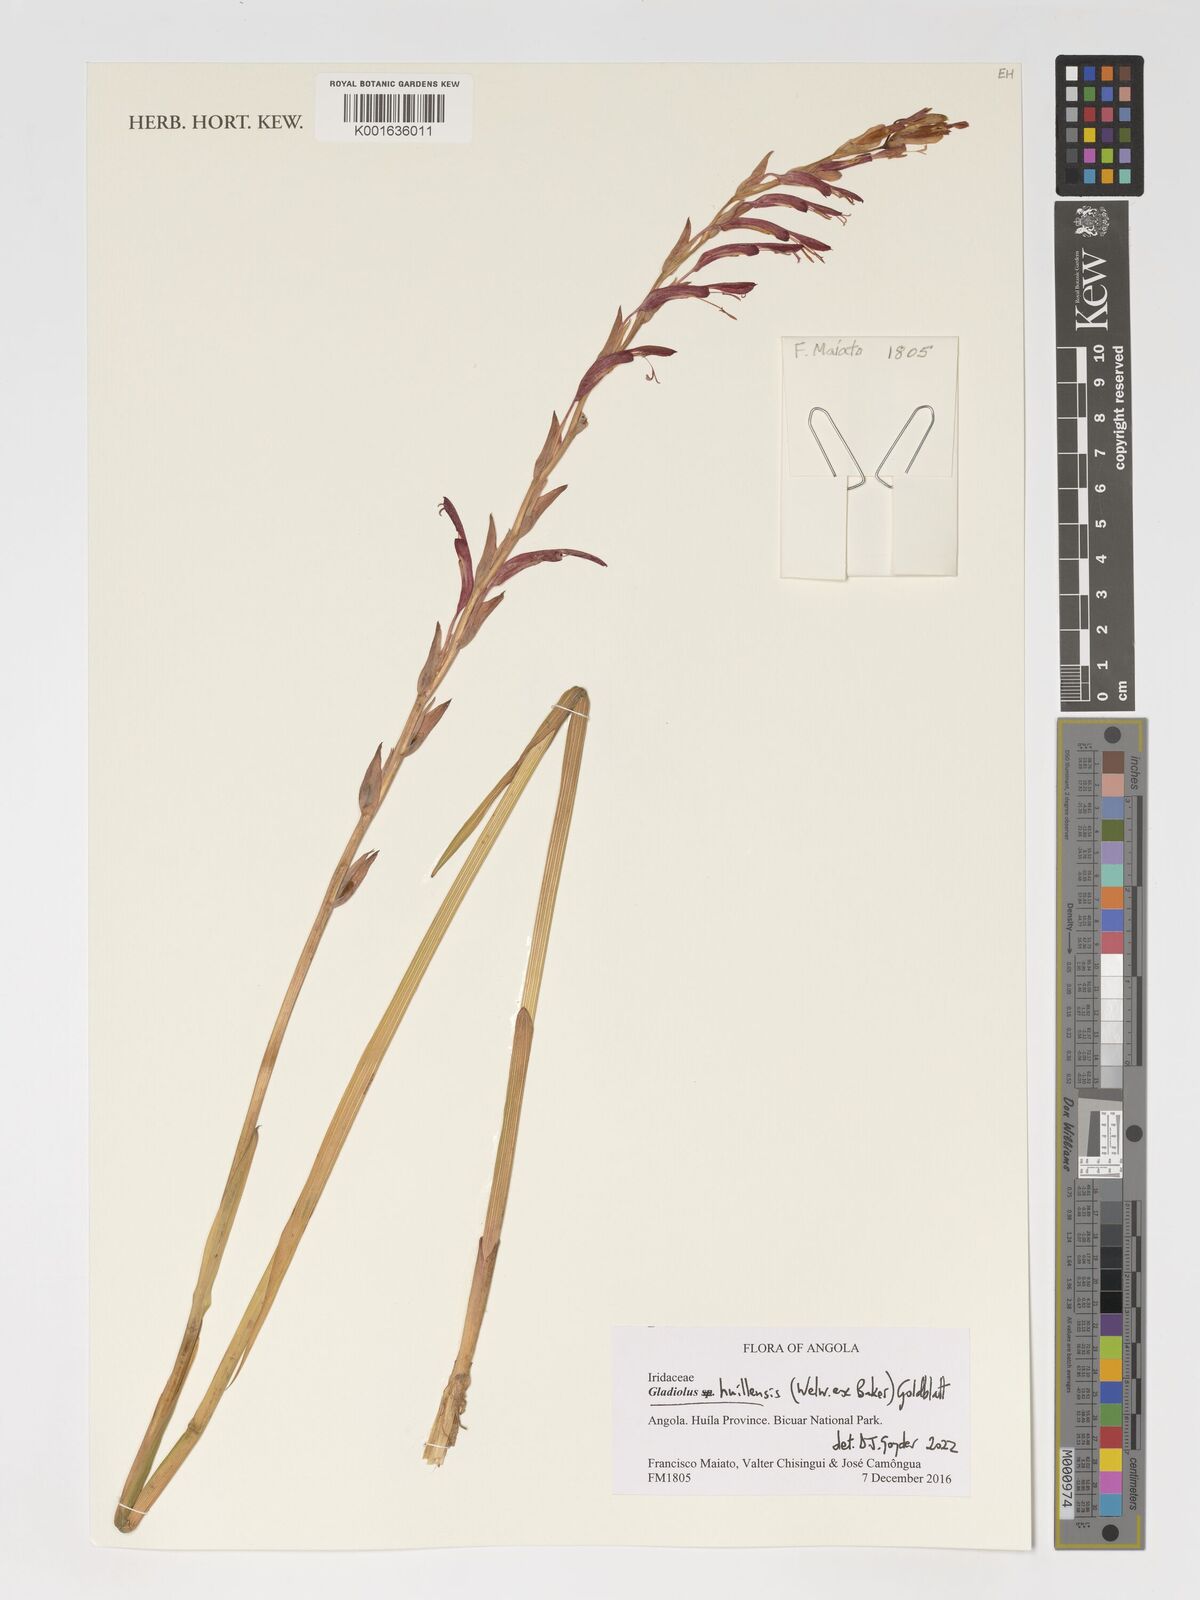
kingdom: Plantae
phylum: Tracheophyta
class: Liliopsida
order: Asparagales
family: Iridaceae
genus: Gladiolus
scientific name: Gladiolus huillensis
